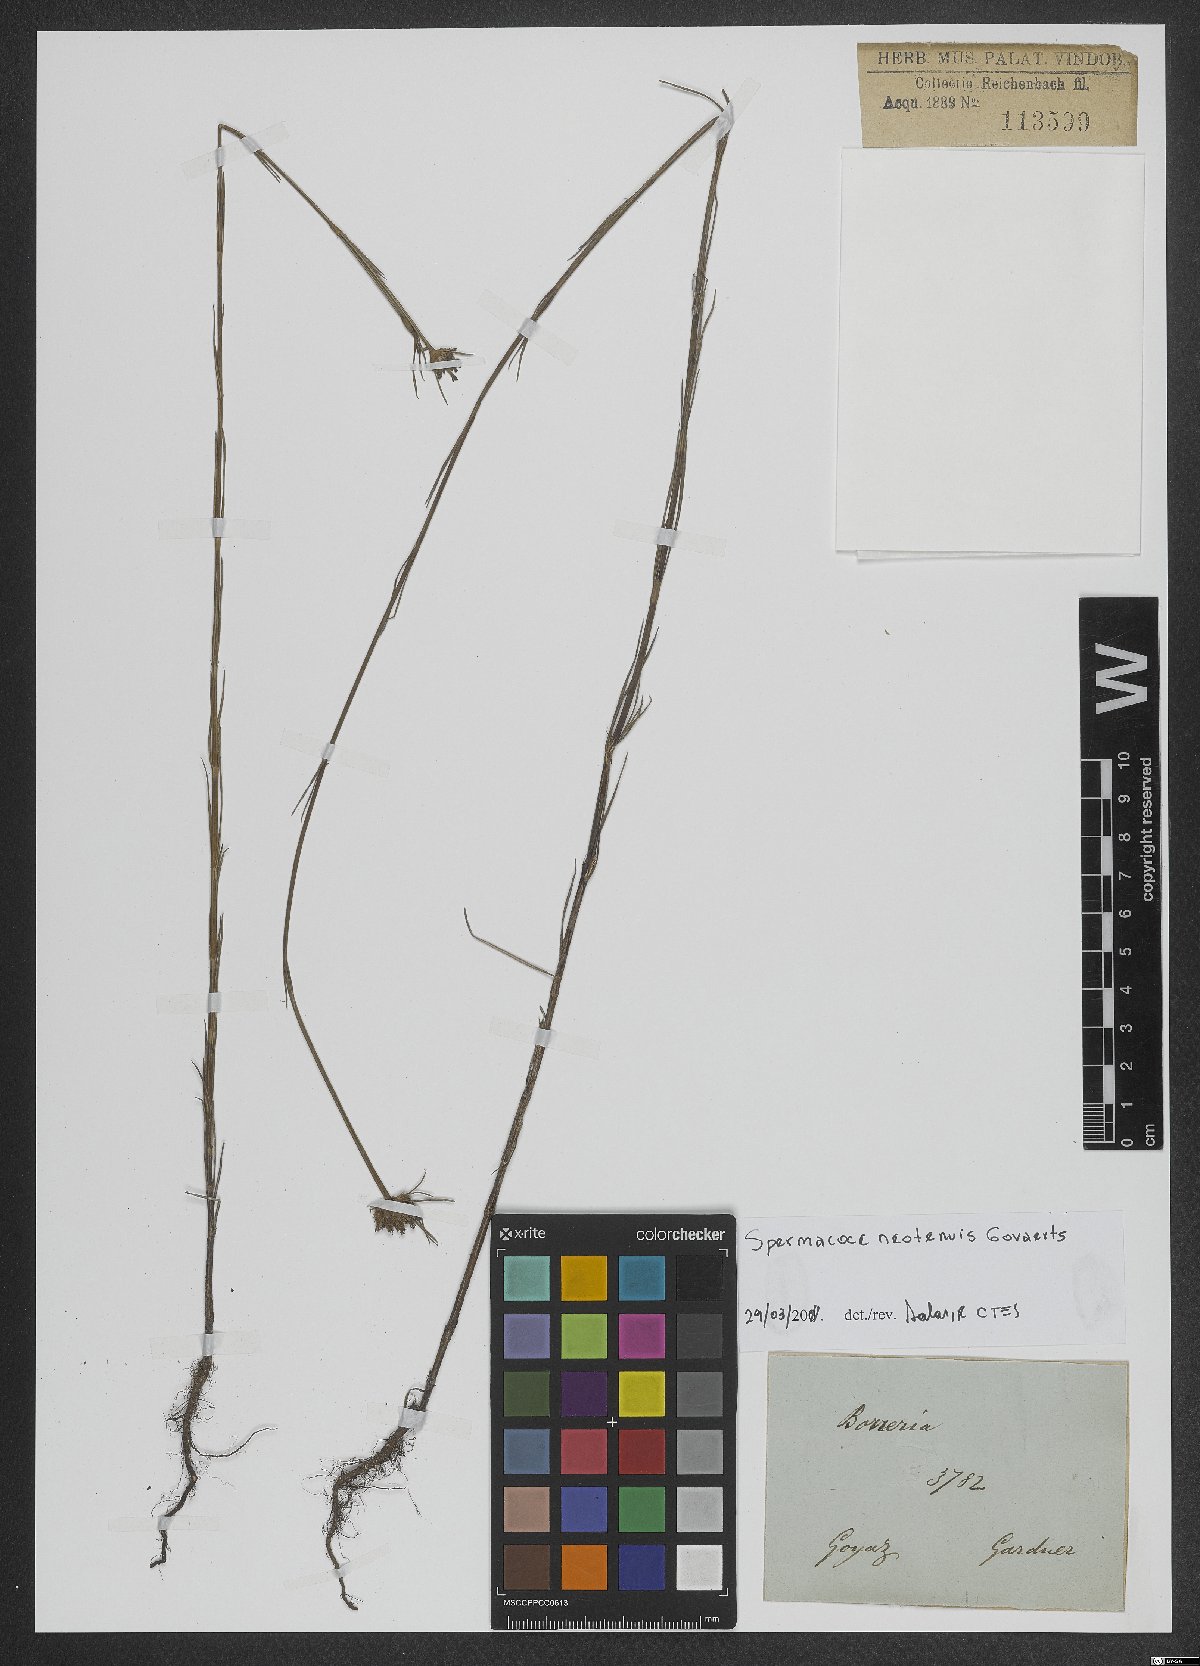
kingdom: Plantae
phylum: Tracheophyta
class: Magnoliopsida
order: Gentianales
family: Rubiaceae
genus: Spermacoce
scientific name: Spermacoce neotenuis
